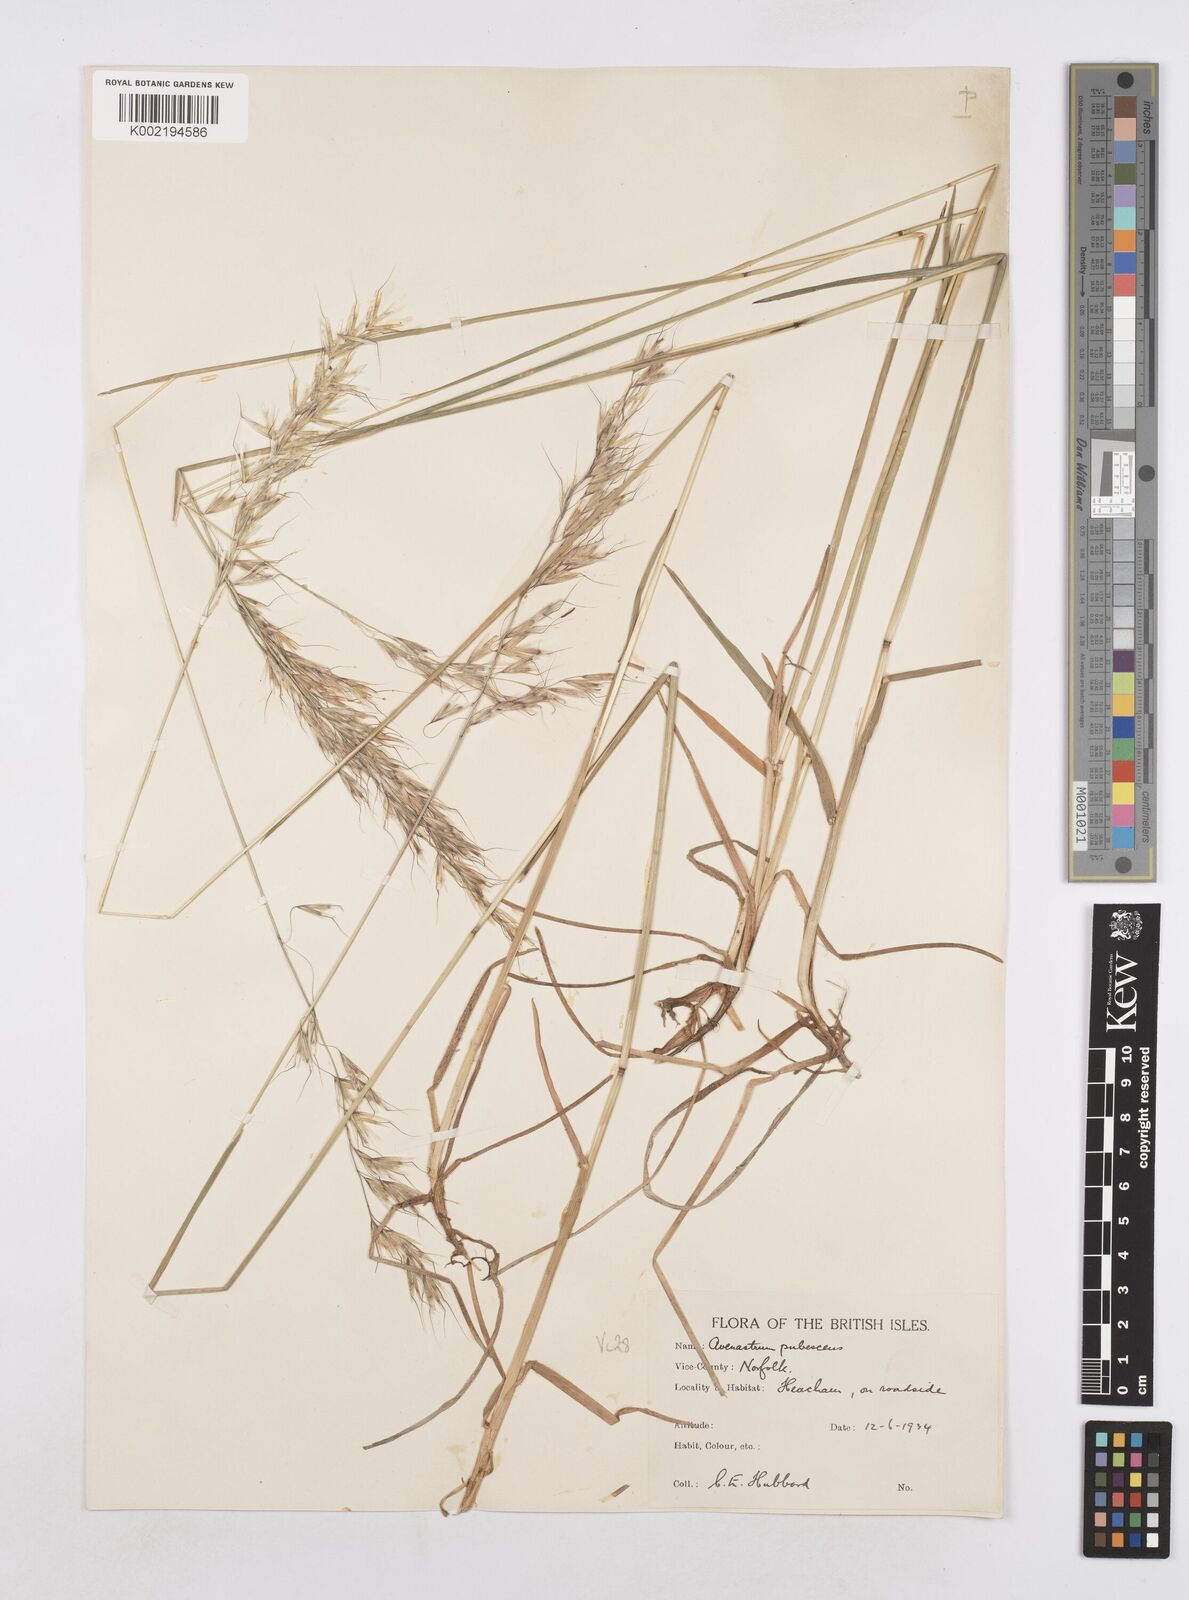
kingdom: Plantae
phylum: Tracheophyta
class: Liliopsida
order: Poales
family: Poaceae
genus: Avenula
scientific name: Avenula pubescens
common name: Downy alpine oatgrass
